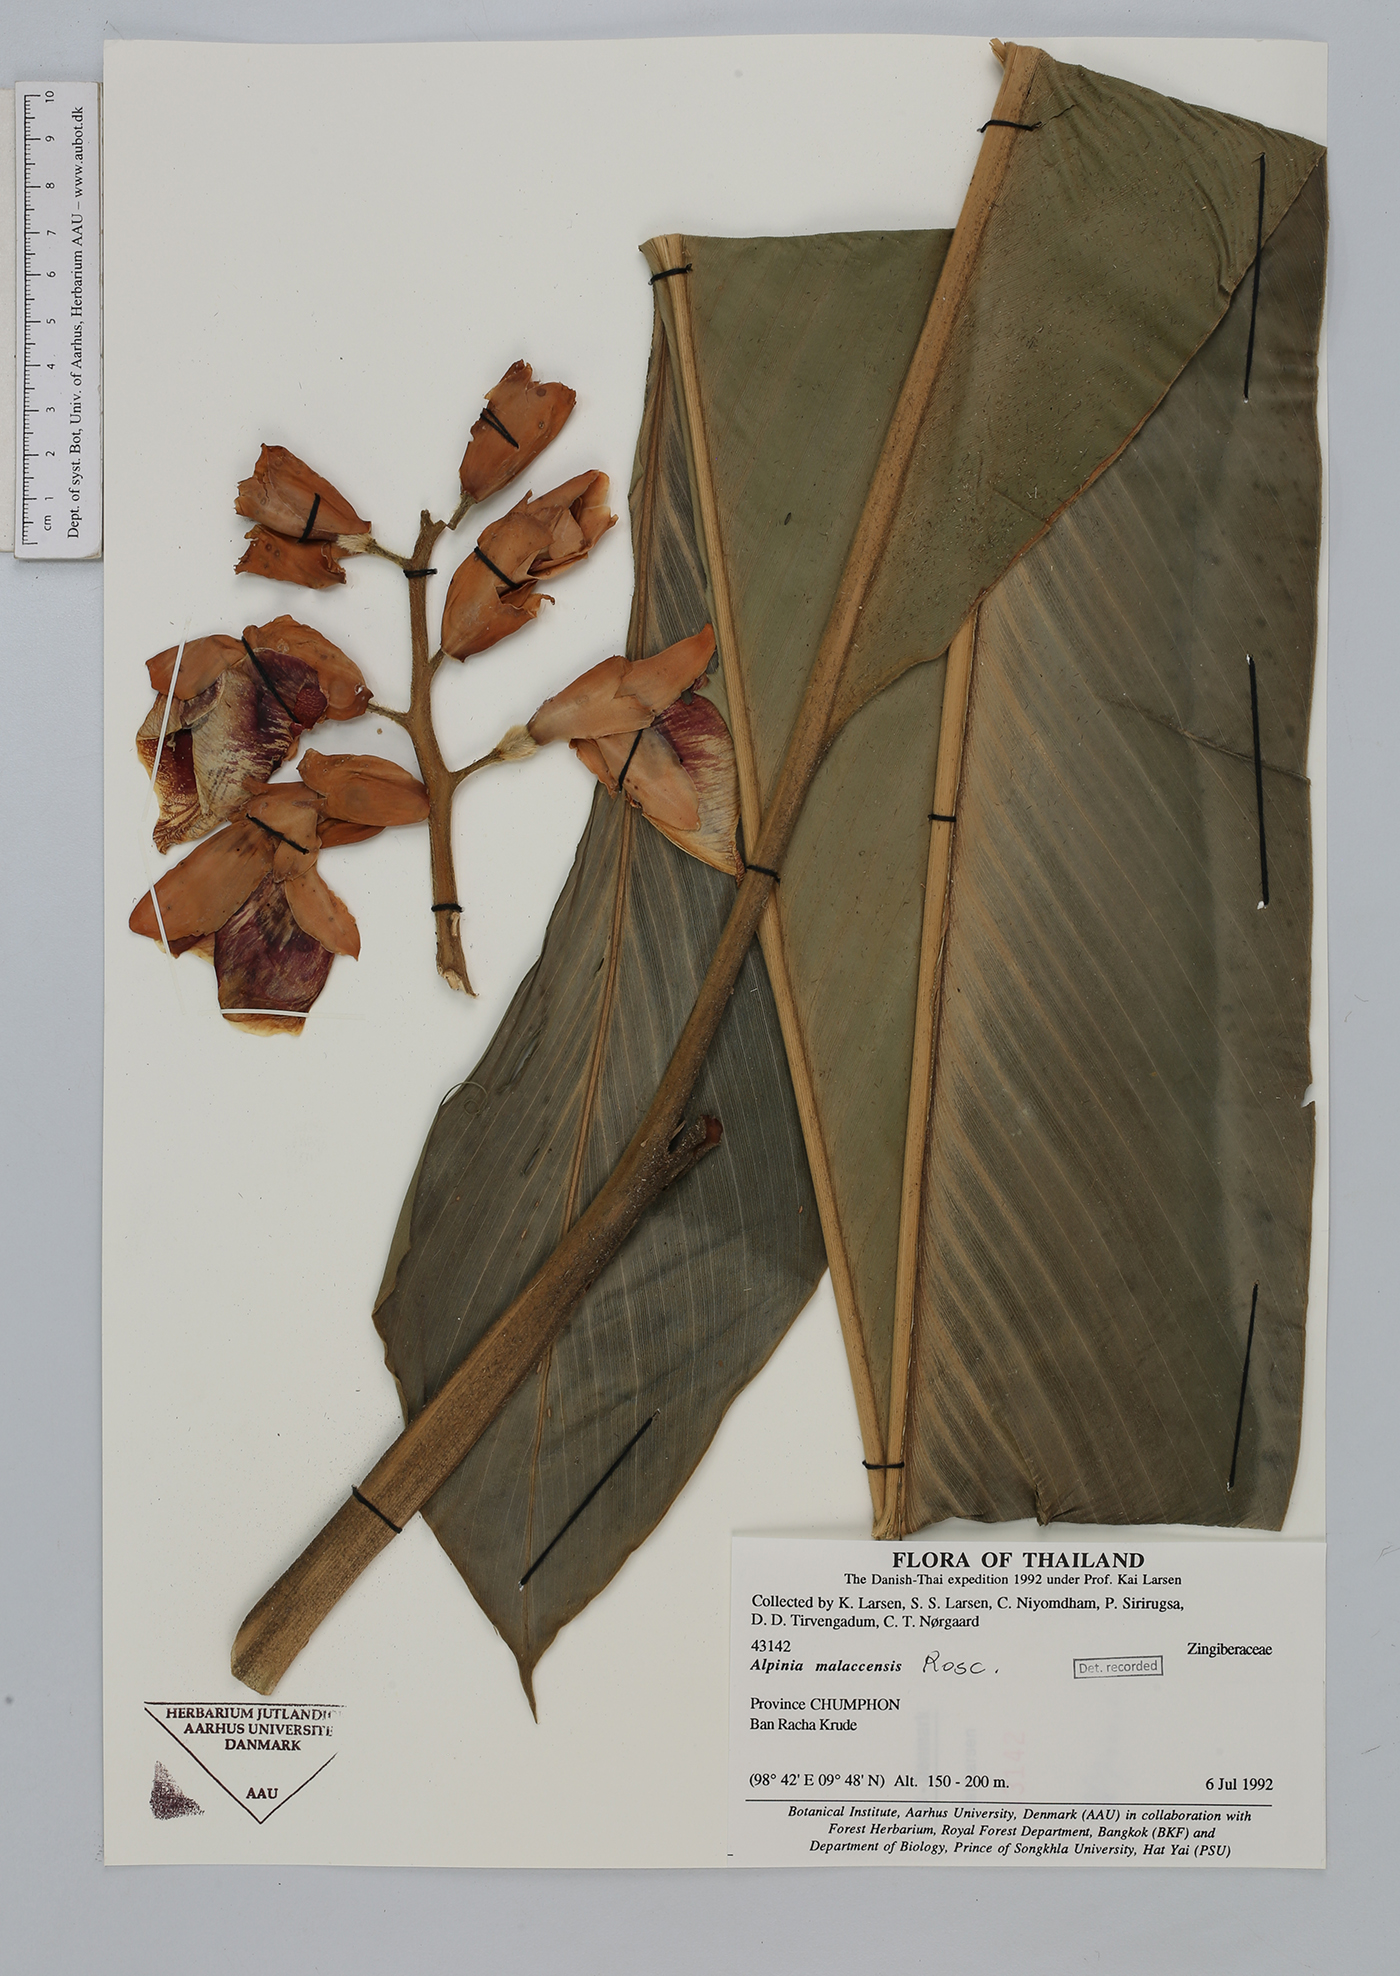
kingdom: Plantae
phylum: Tracheophyta
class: Liliopsida
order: Zingiberales
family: Zingiberaceae
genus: Alpinia
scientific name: Alpinia malaccensis
